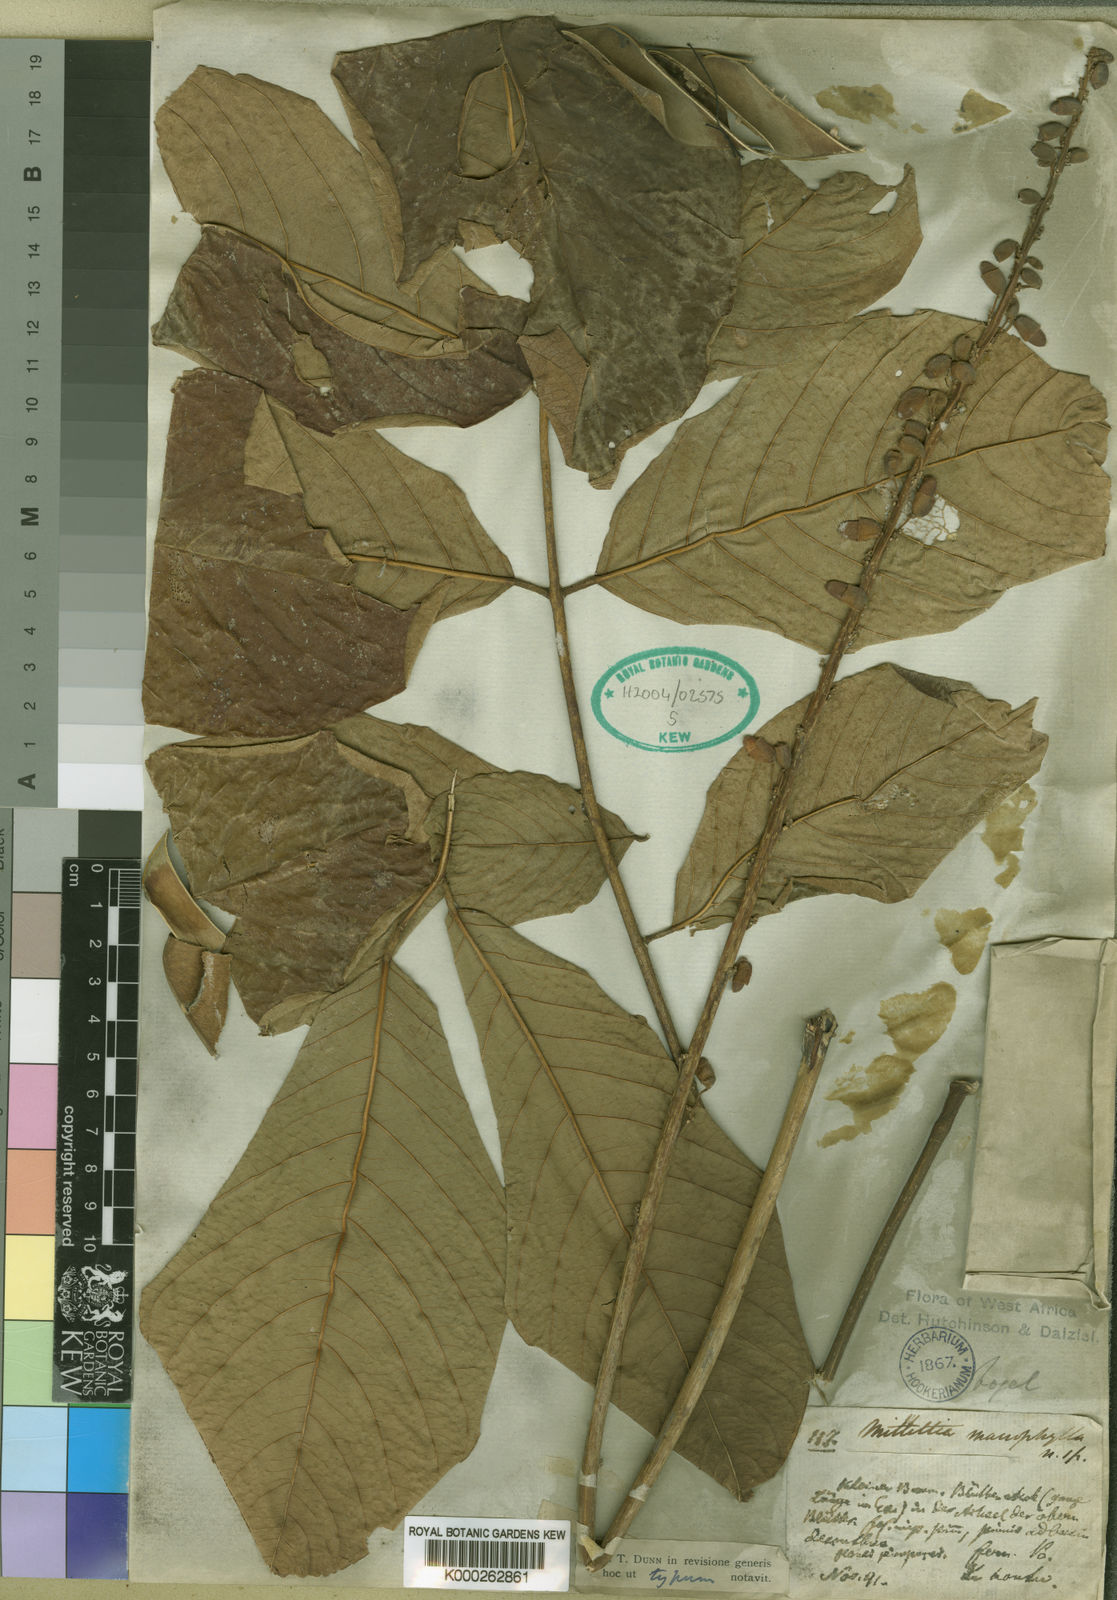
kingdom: Plantae
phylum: Tracheophyta
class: Magnoliopsida
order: Fabales
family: Fabaceae
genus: Millettia
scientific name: Millettia macrophylla
